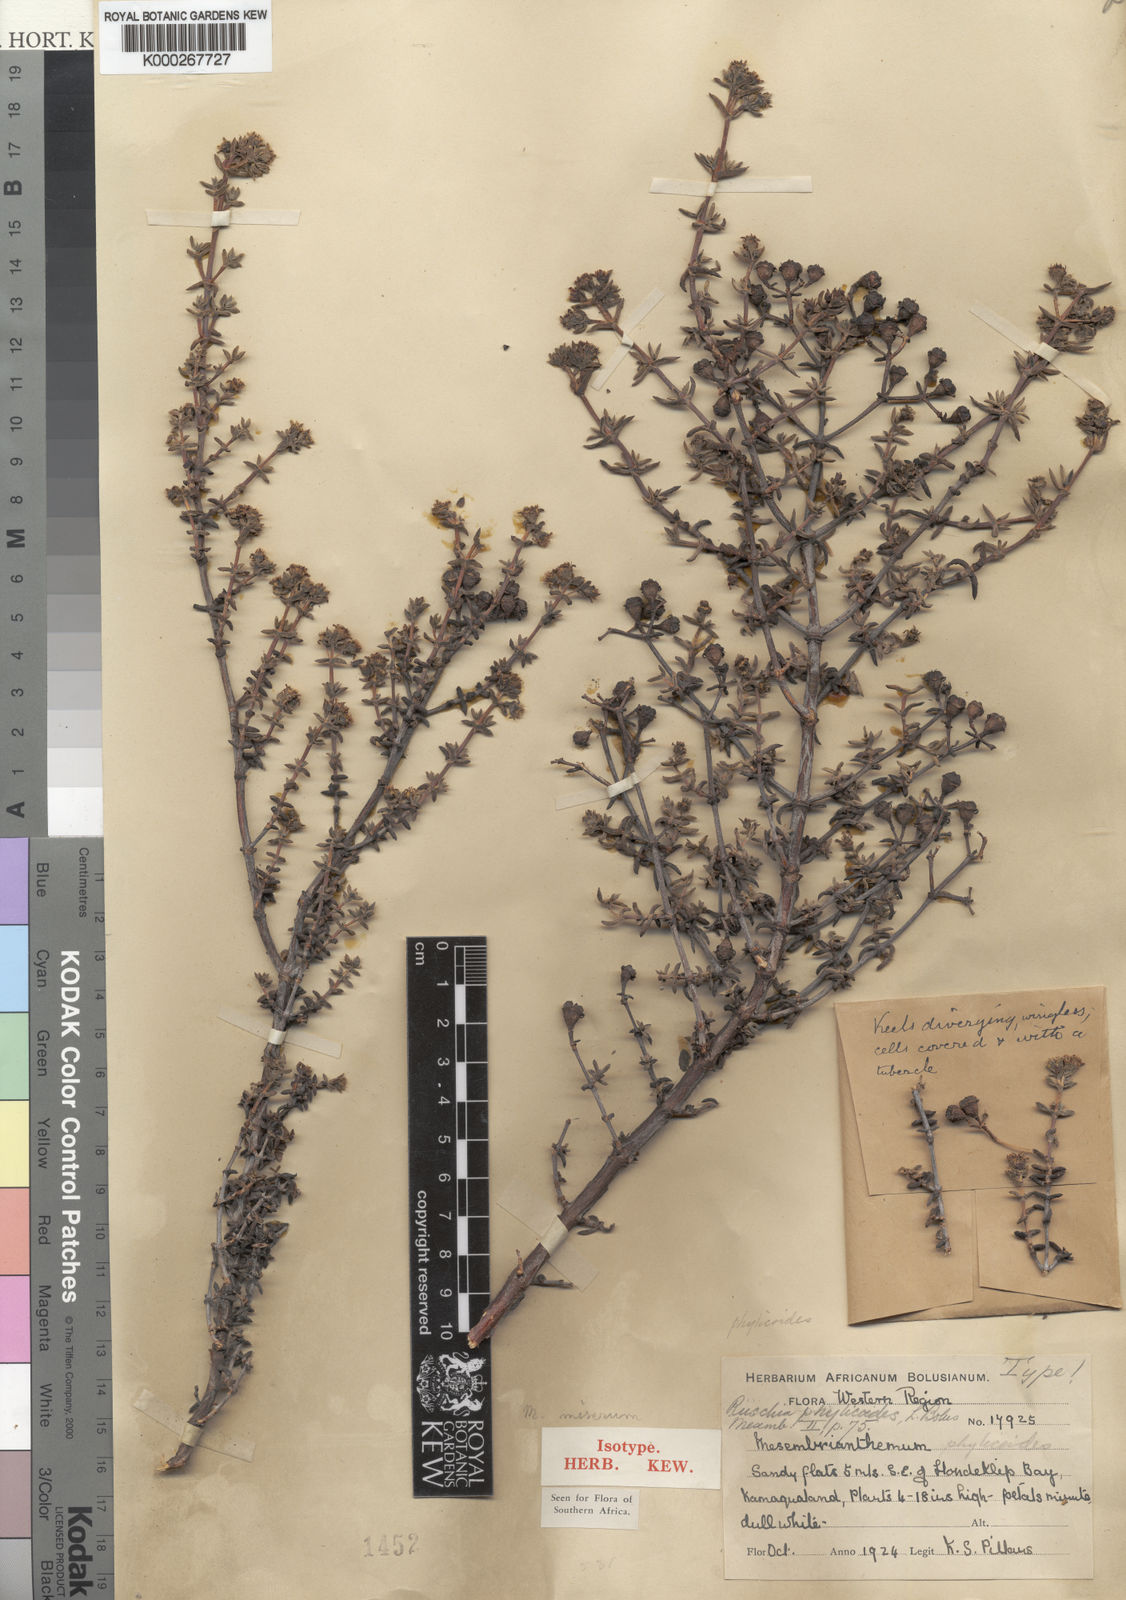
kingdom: Plantae
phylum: Tracheophyta
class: Magnoliopsida
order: Caryophyllales
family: Aizoaceae
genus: Ruschia
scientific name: Ruschia phylicoides
